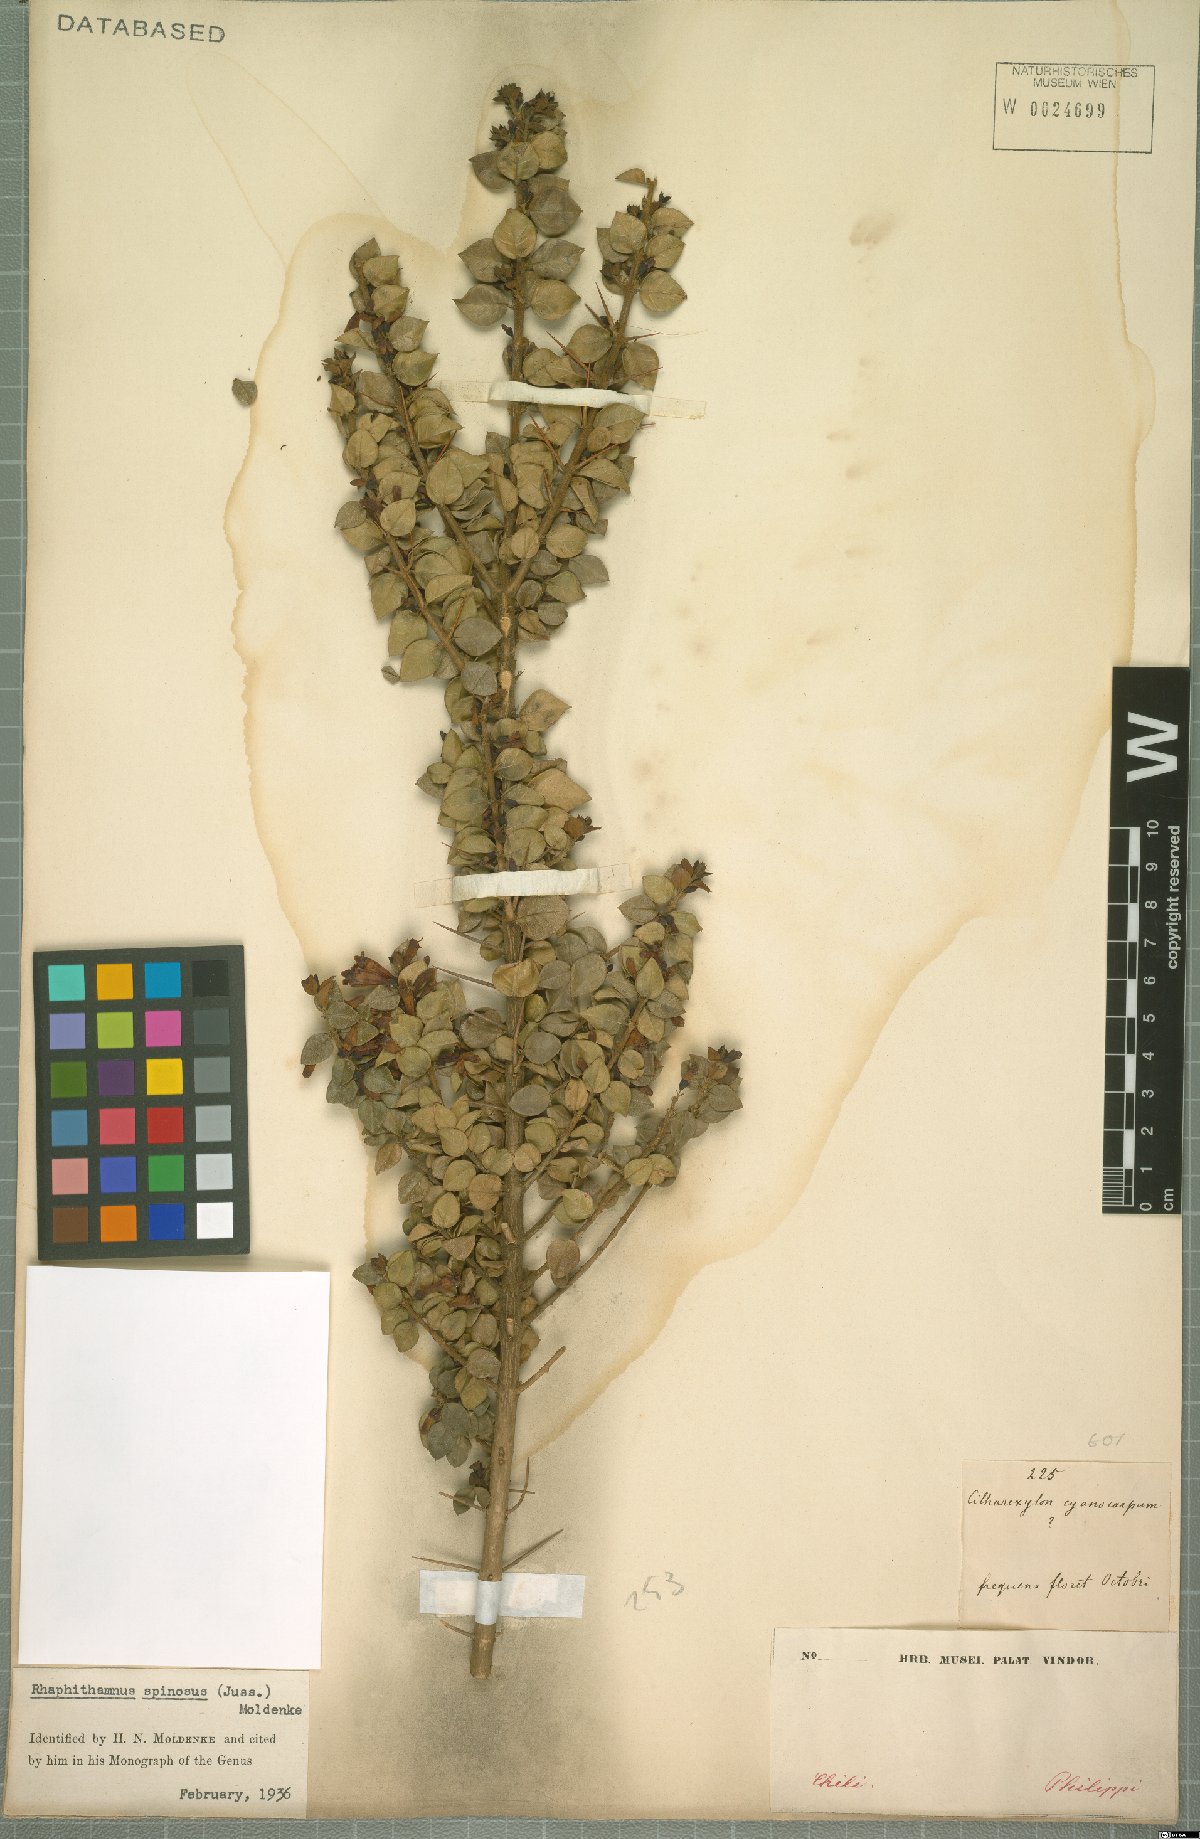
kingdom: Plantae
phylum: Tracheophyta
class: Magnoliopsida
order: Lamiales
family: Verbenaceae
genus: Rhaphithamnus
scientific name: Rhaphithamnus spinosus
